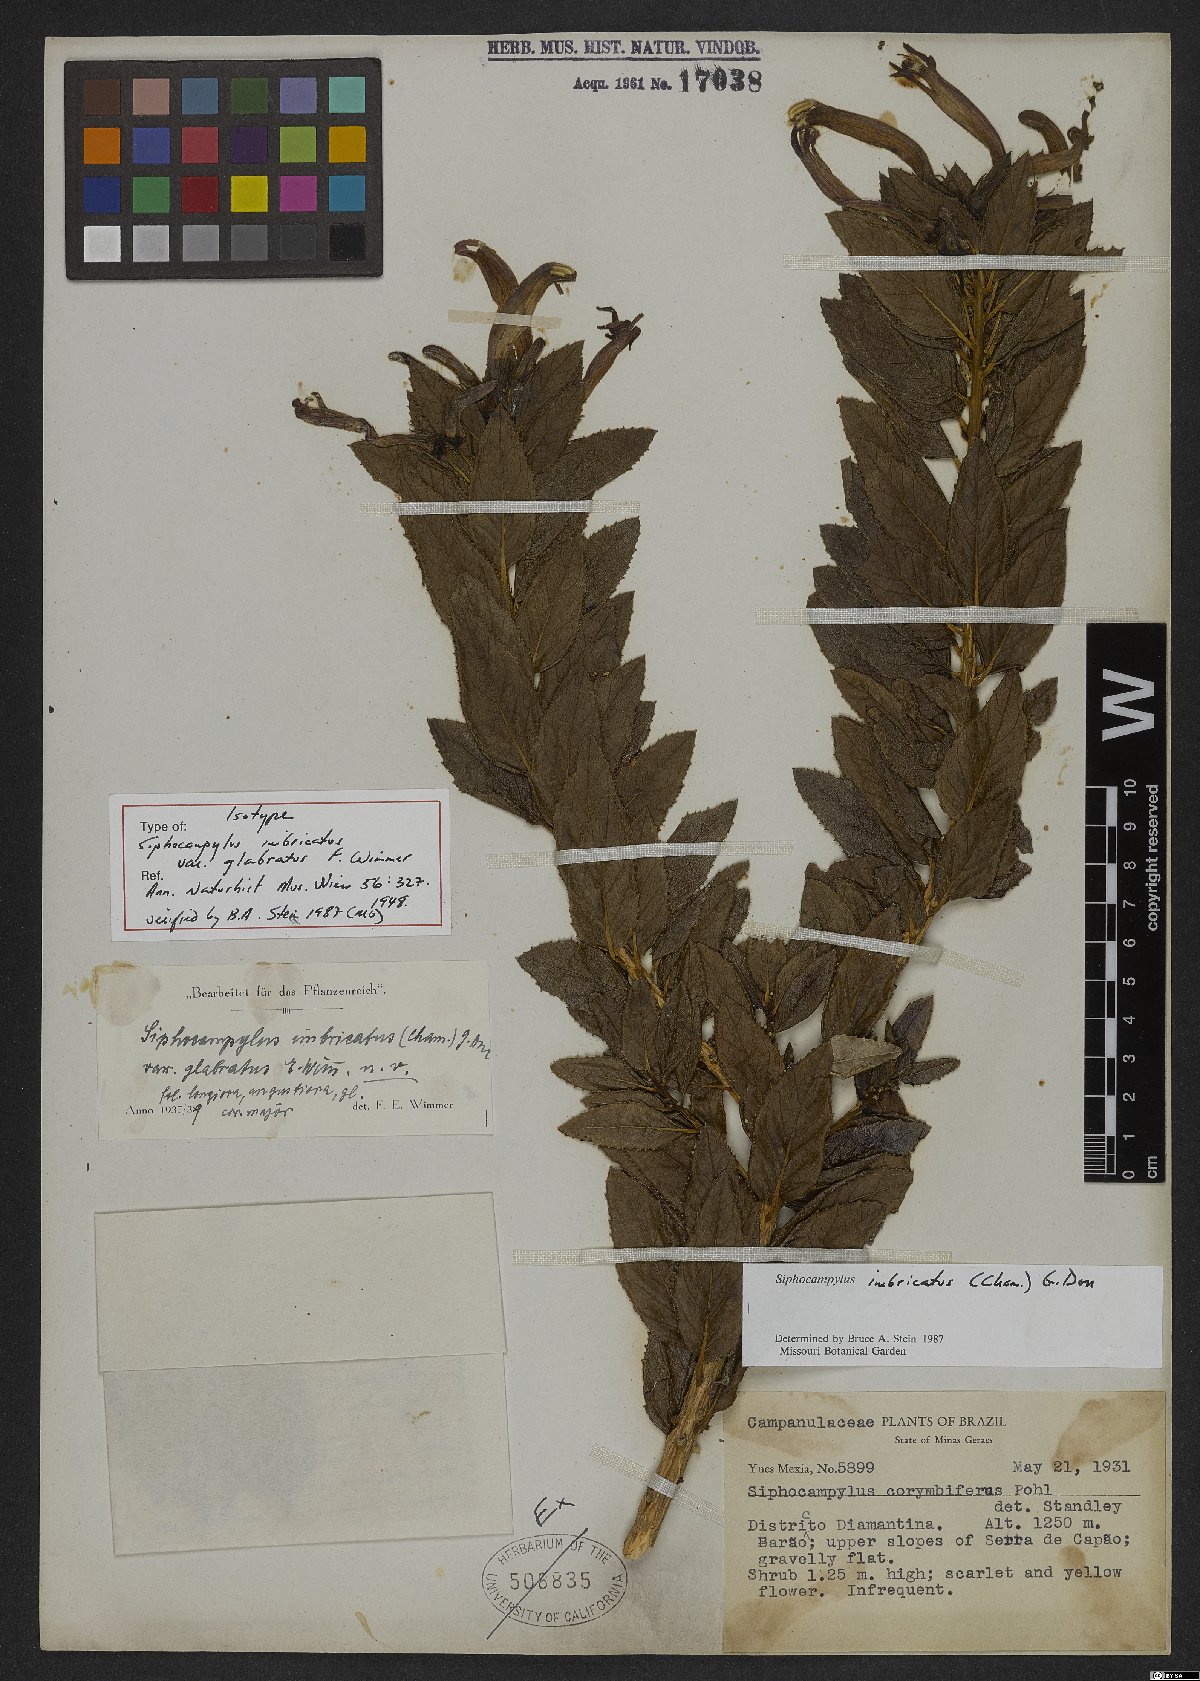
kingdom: Plantae
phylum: Tracheophyta
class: Magnoliopsida
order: Asterales
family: Campanulaceae
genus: Siphocampylus
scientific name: Siphocampylus imbricatus
